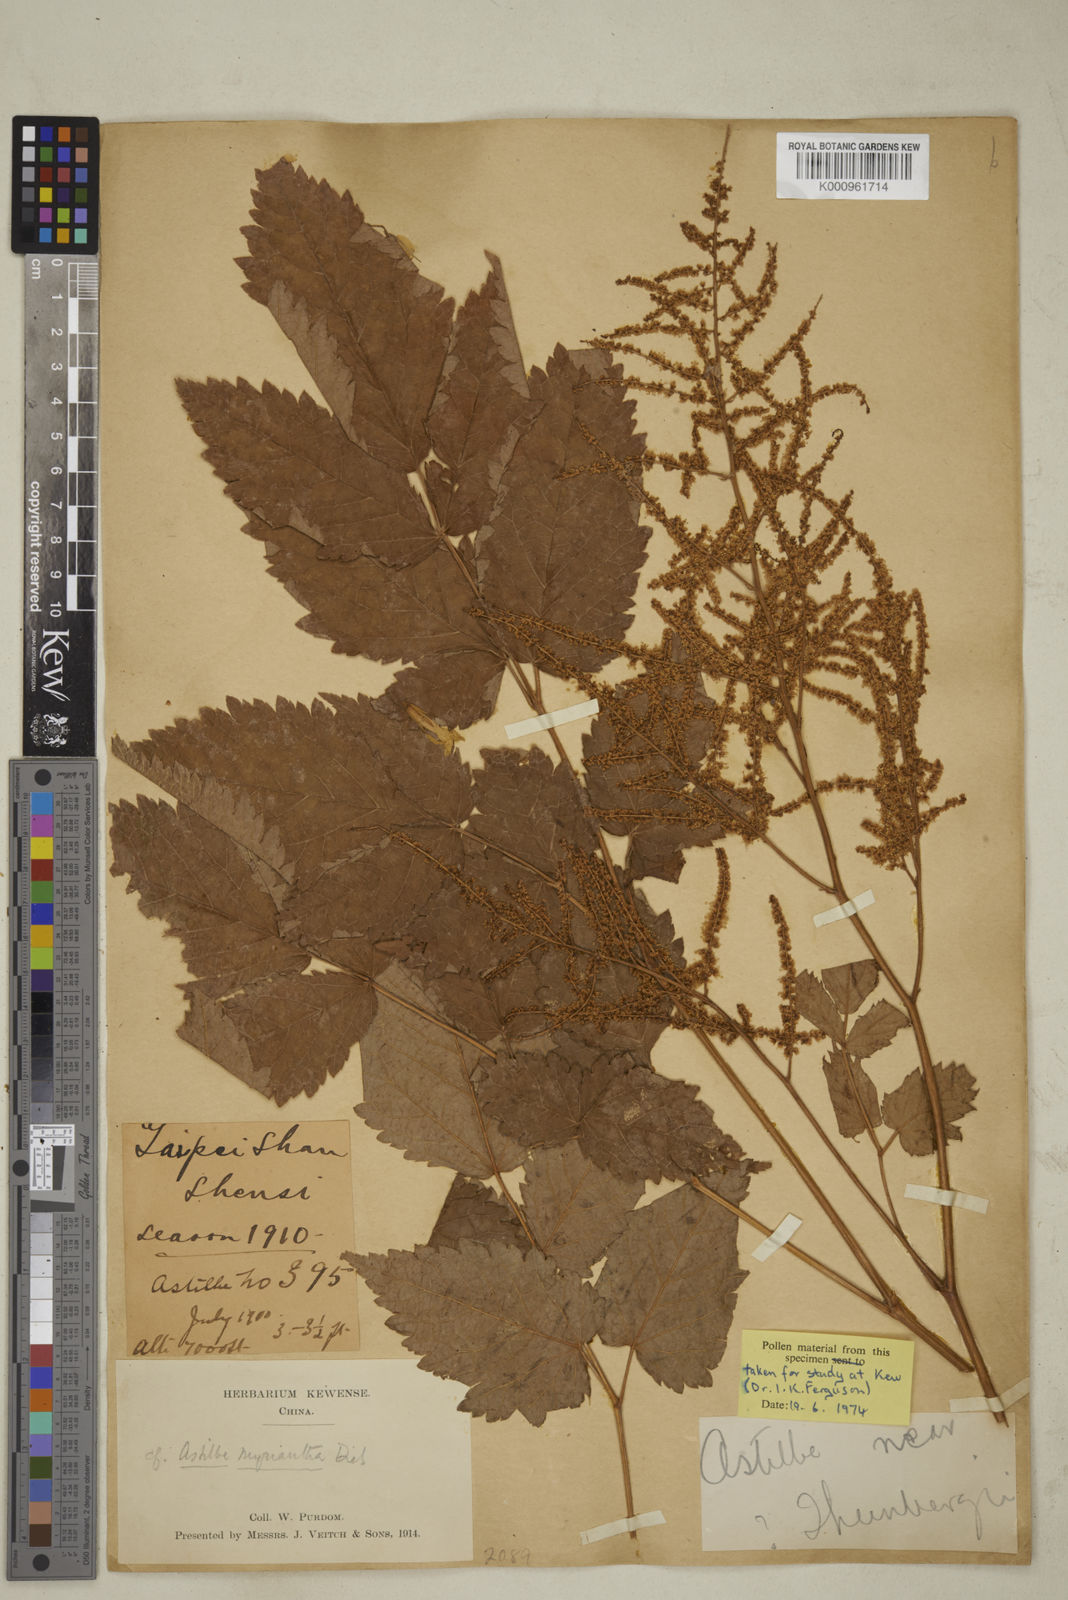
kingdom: Plantae
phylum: Tracheophyta
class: Magnoliopsida
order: Saxifragales
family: Saxifragaceae
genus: Astilbe
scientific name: Astilbe rivularis
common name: Tall false-buck's-beard
